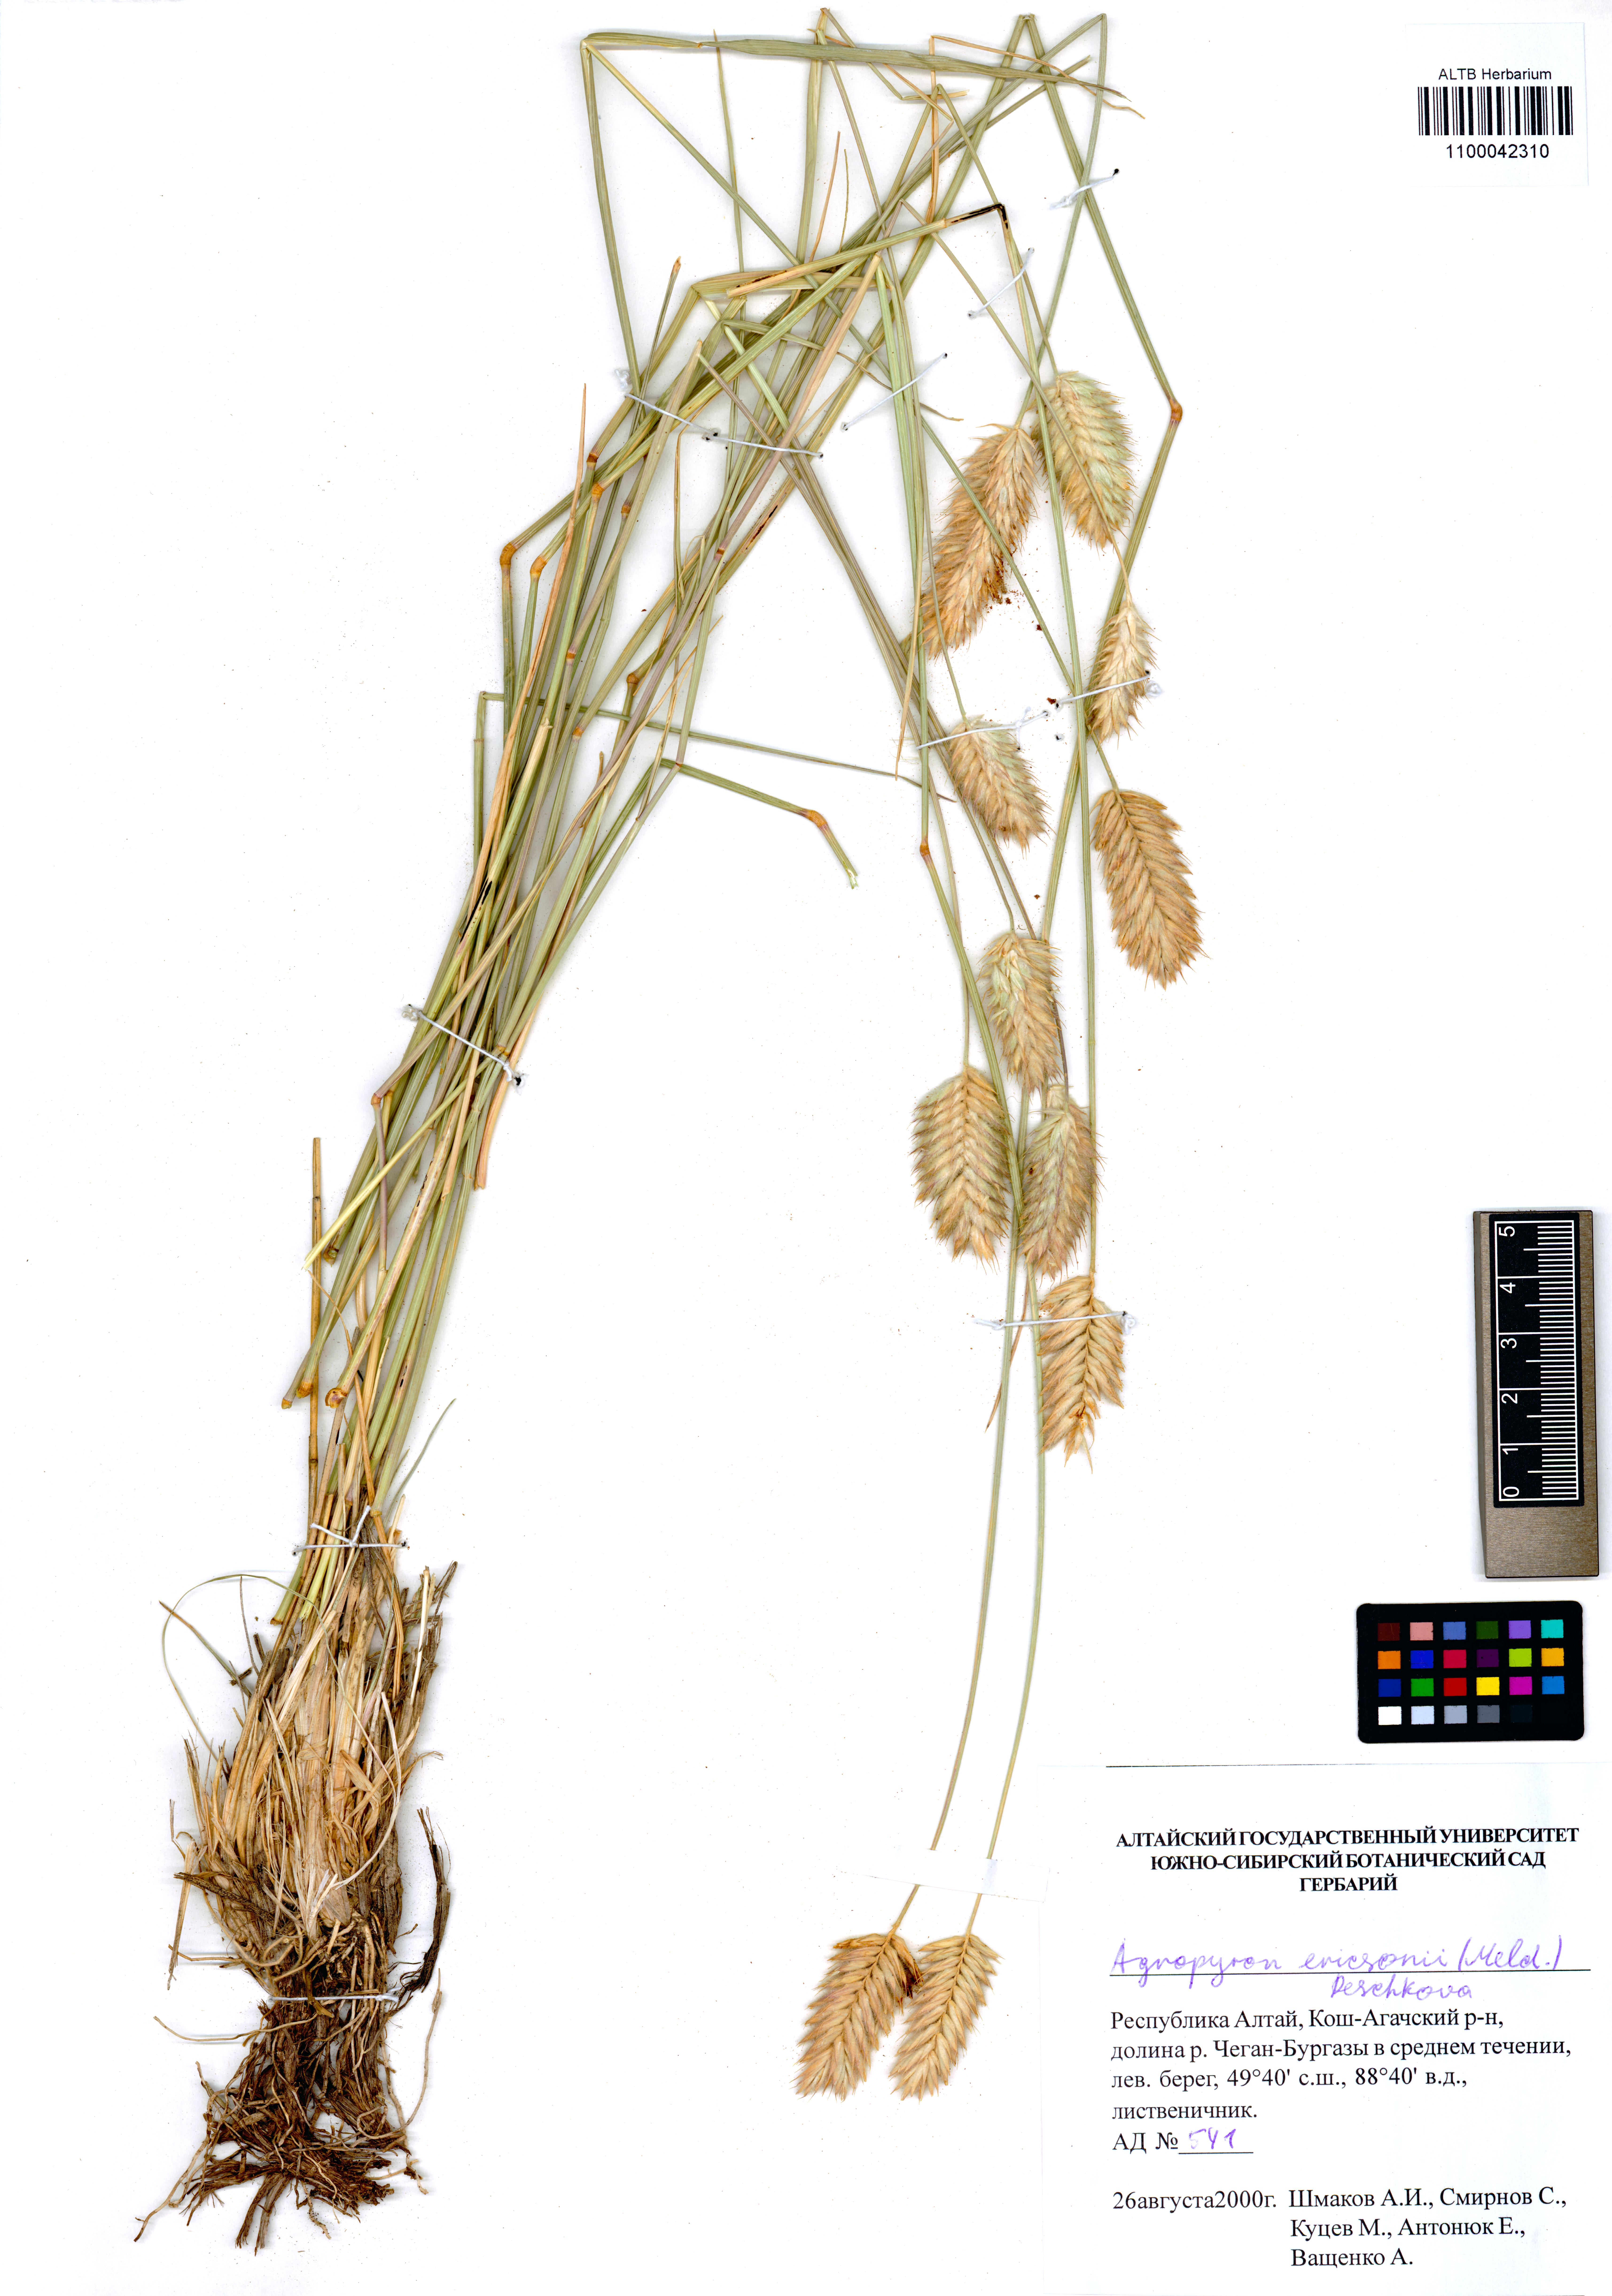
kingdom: Plantae
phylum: Tracheophyta
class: Liliopsida
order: Poales
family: Poaceae
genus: Agropyron
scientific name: Agropyron cristatum
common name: Crested wheatgrass
